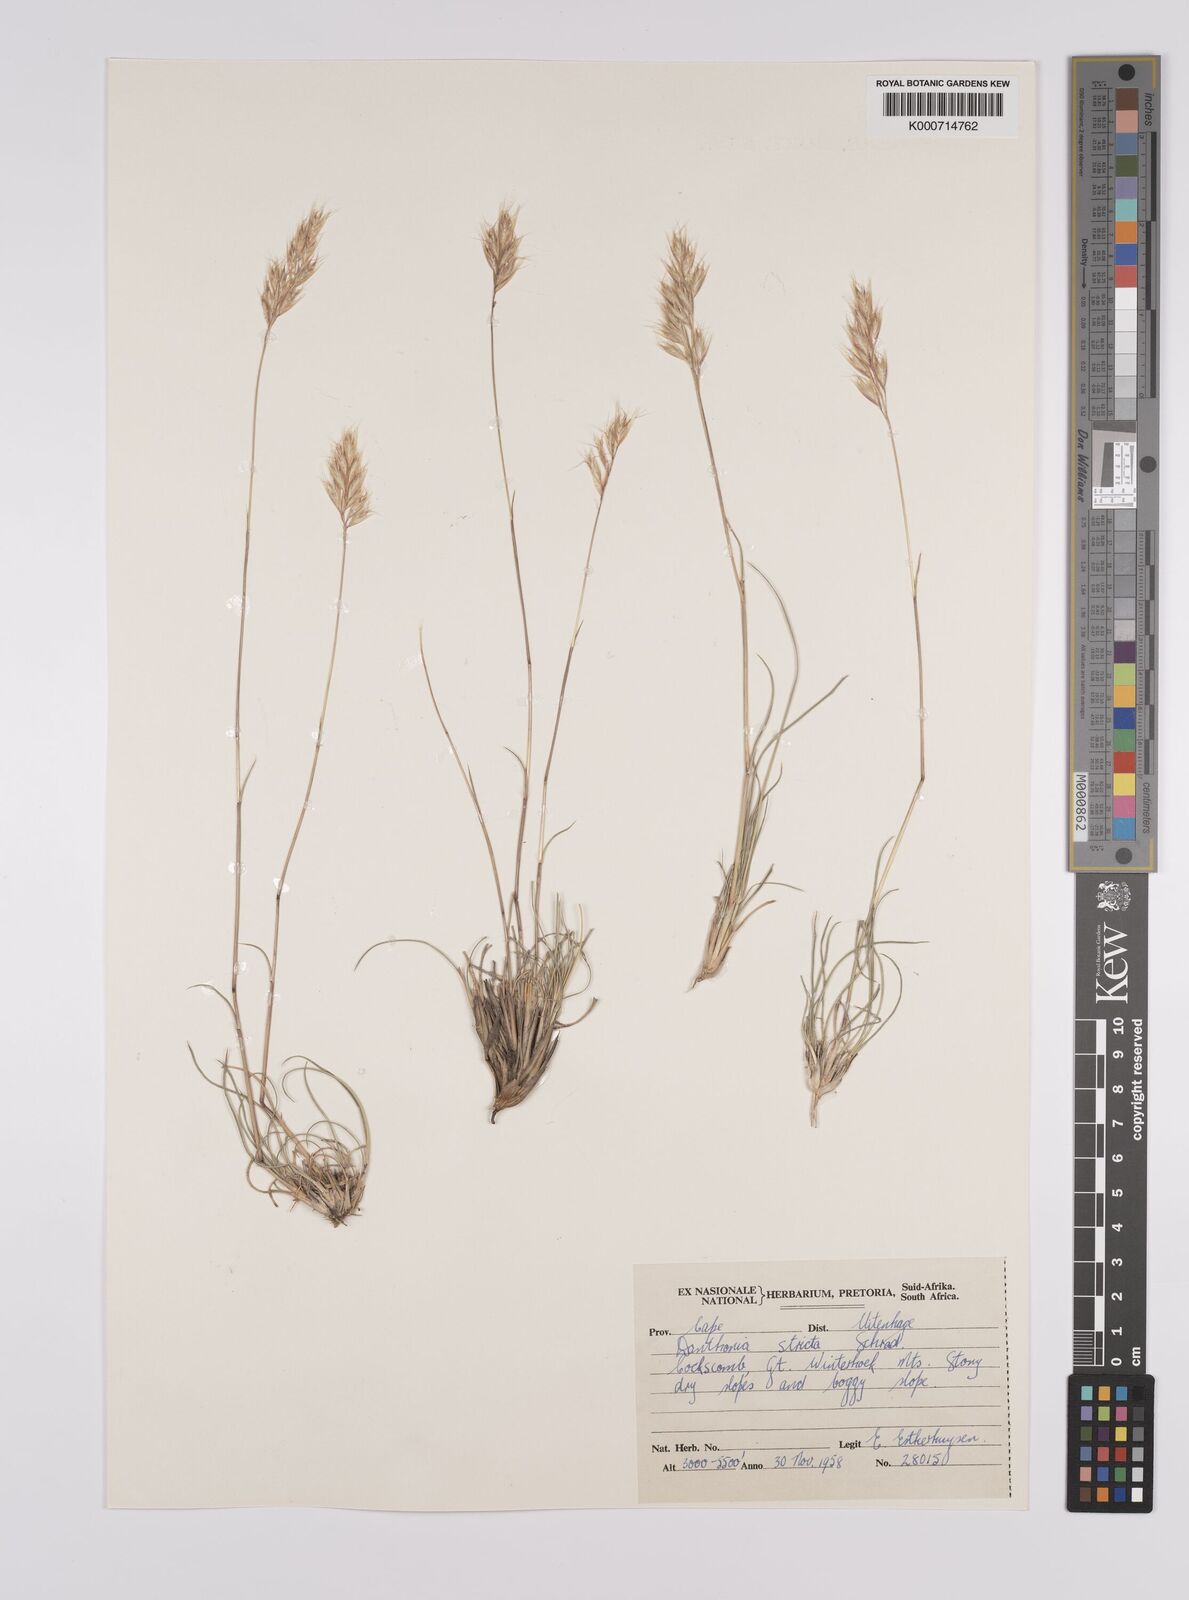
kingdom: Plantae
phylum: Tracheophyta
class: Liliopsida
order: Poales
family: Poaceae
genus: Rytidosperma
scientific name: Rytidosperma
